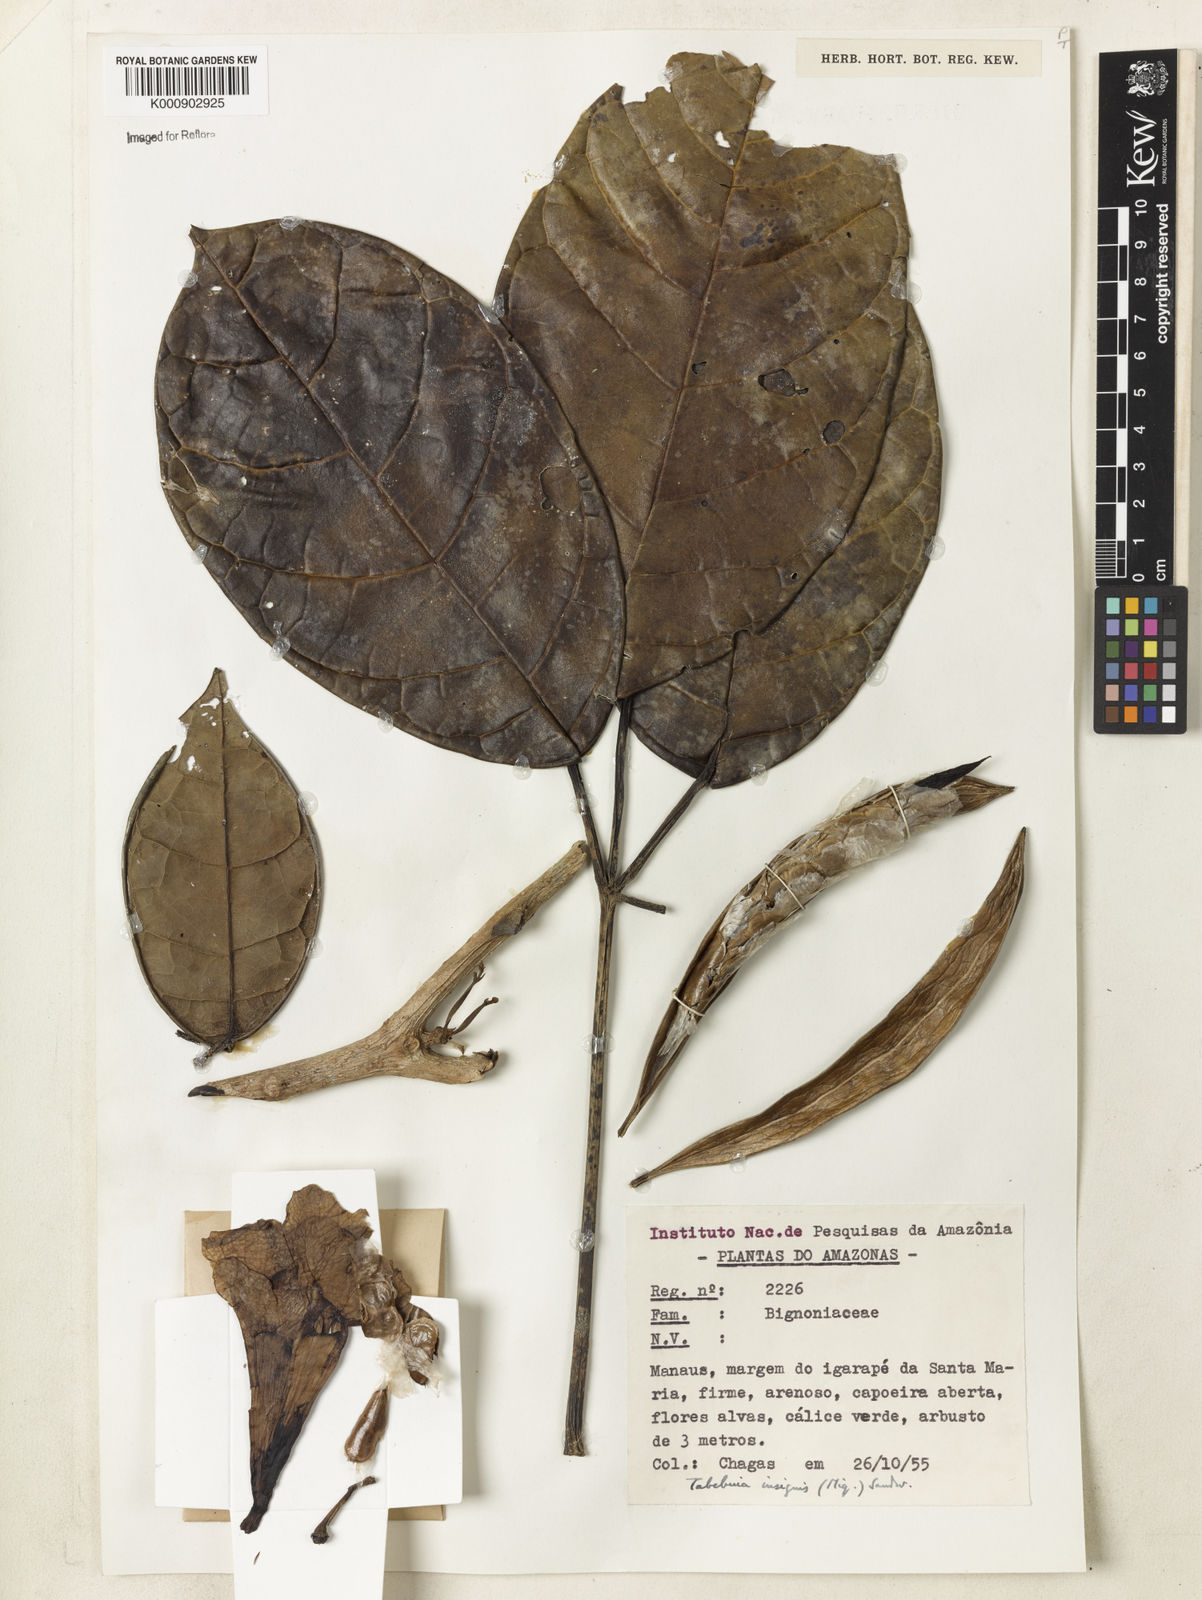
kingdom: Plantae
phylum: Tracheophyta
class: Magnoliopsida
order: Lamiales
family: Bignoniaceae
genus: Tabebuia
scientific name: Tabebuia insignis
